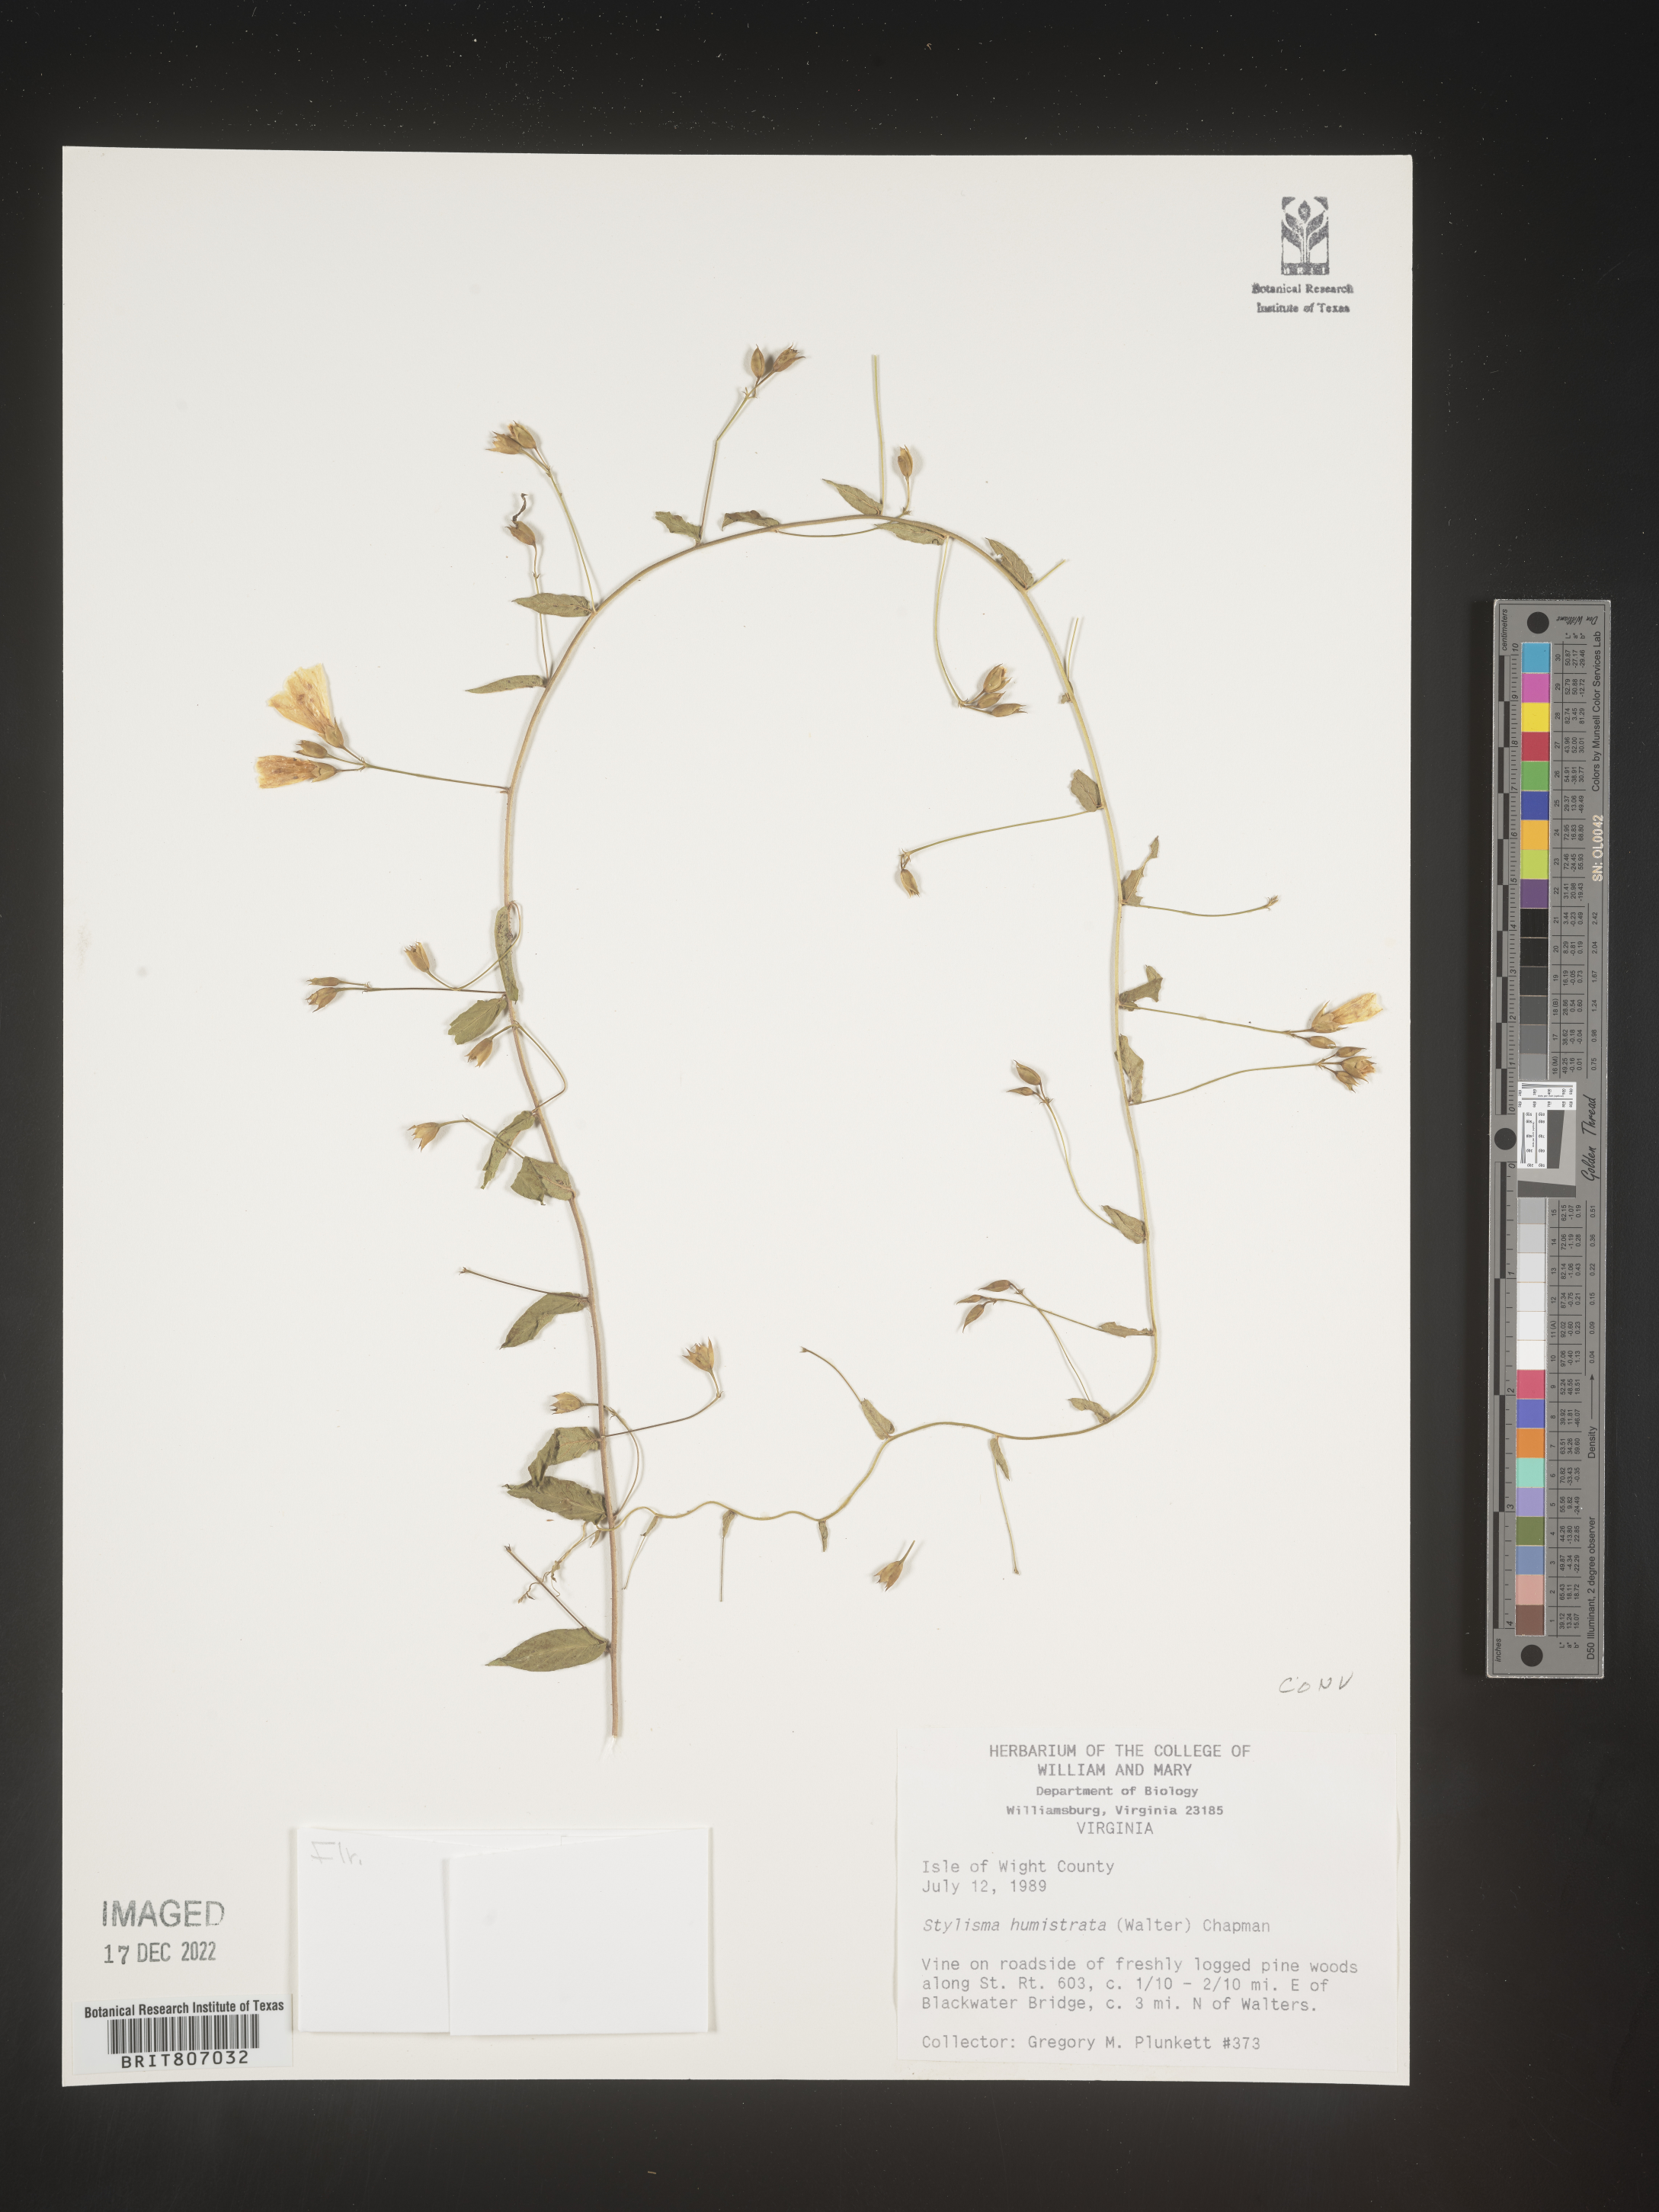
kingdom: Plantae
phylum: Tracheophyta
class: Magnoliopsida
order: Solanales
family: Convolvulaceae
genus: Stylisma
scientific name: Stylisma humistrata
